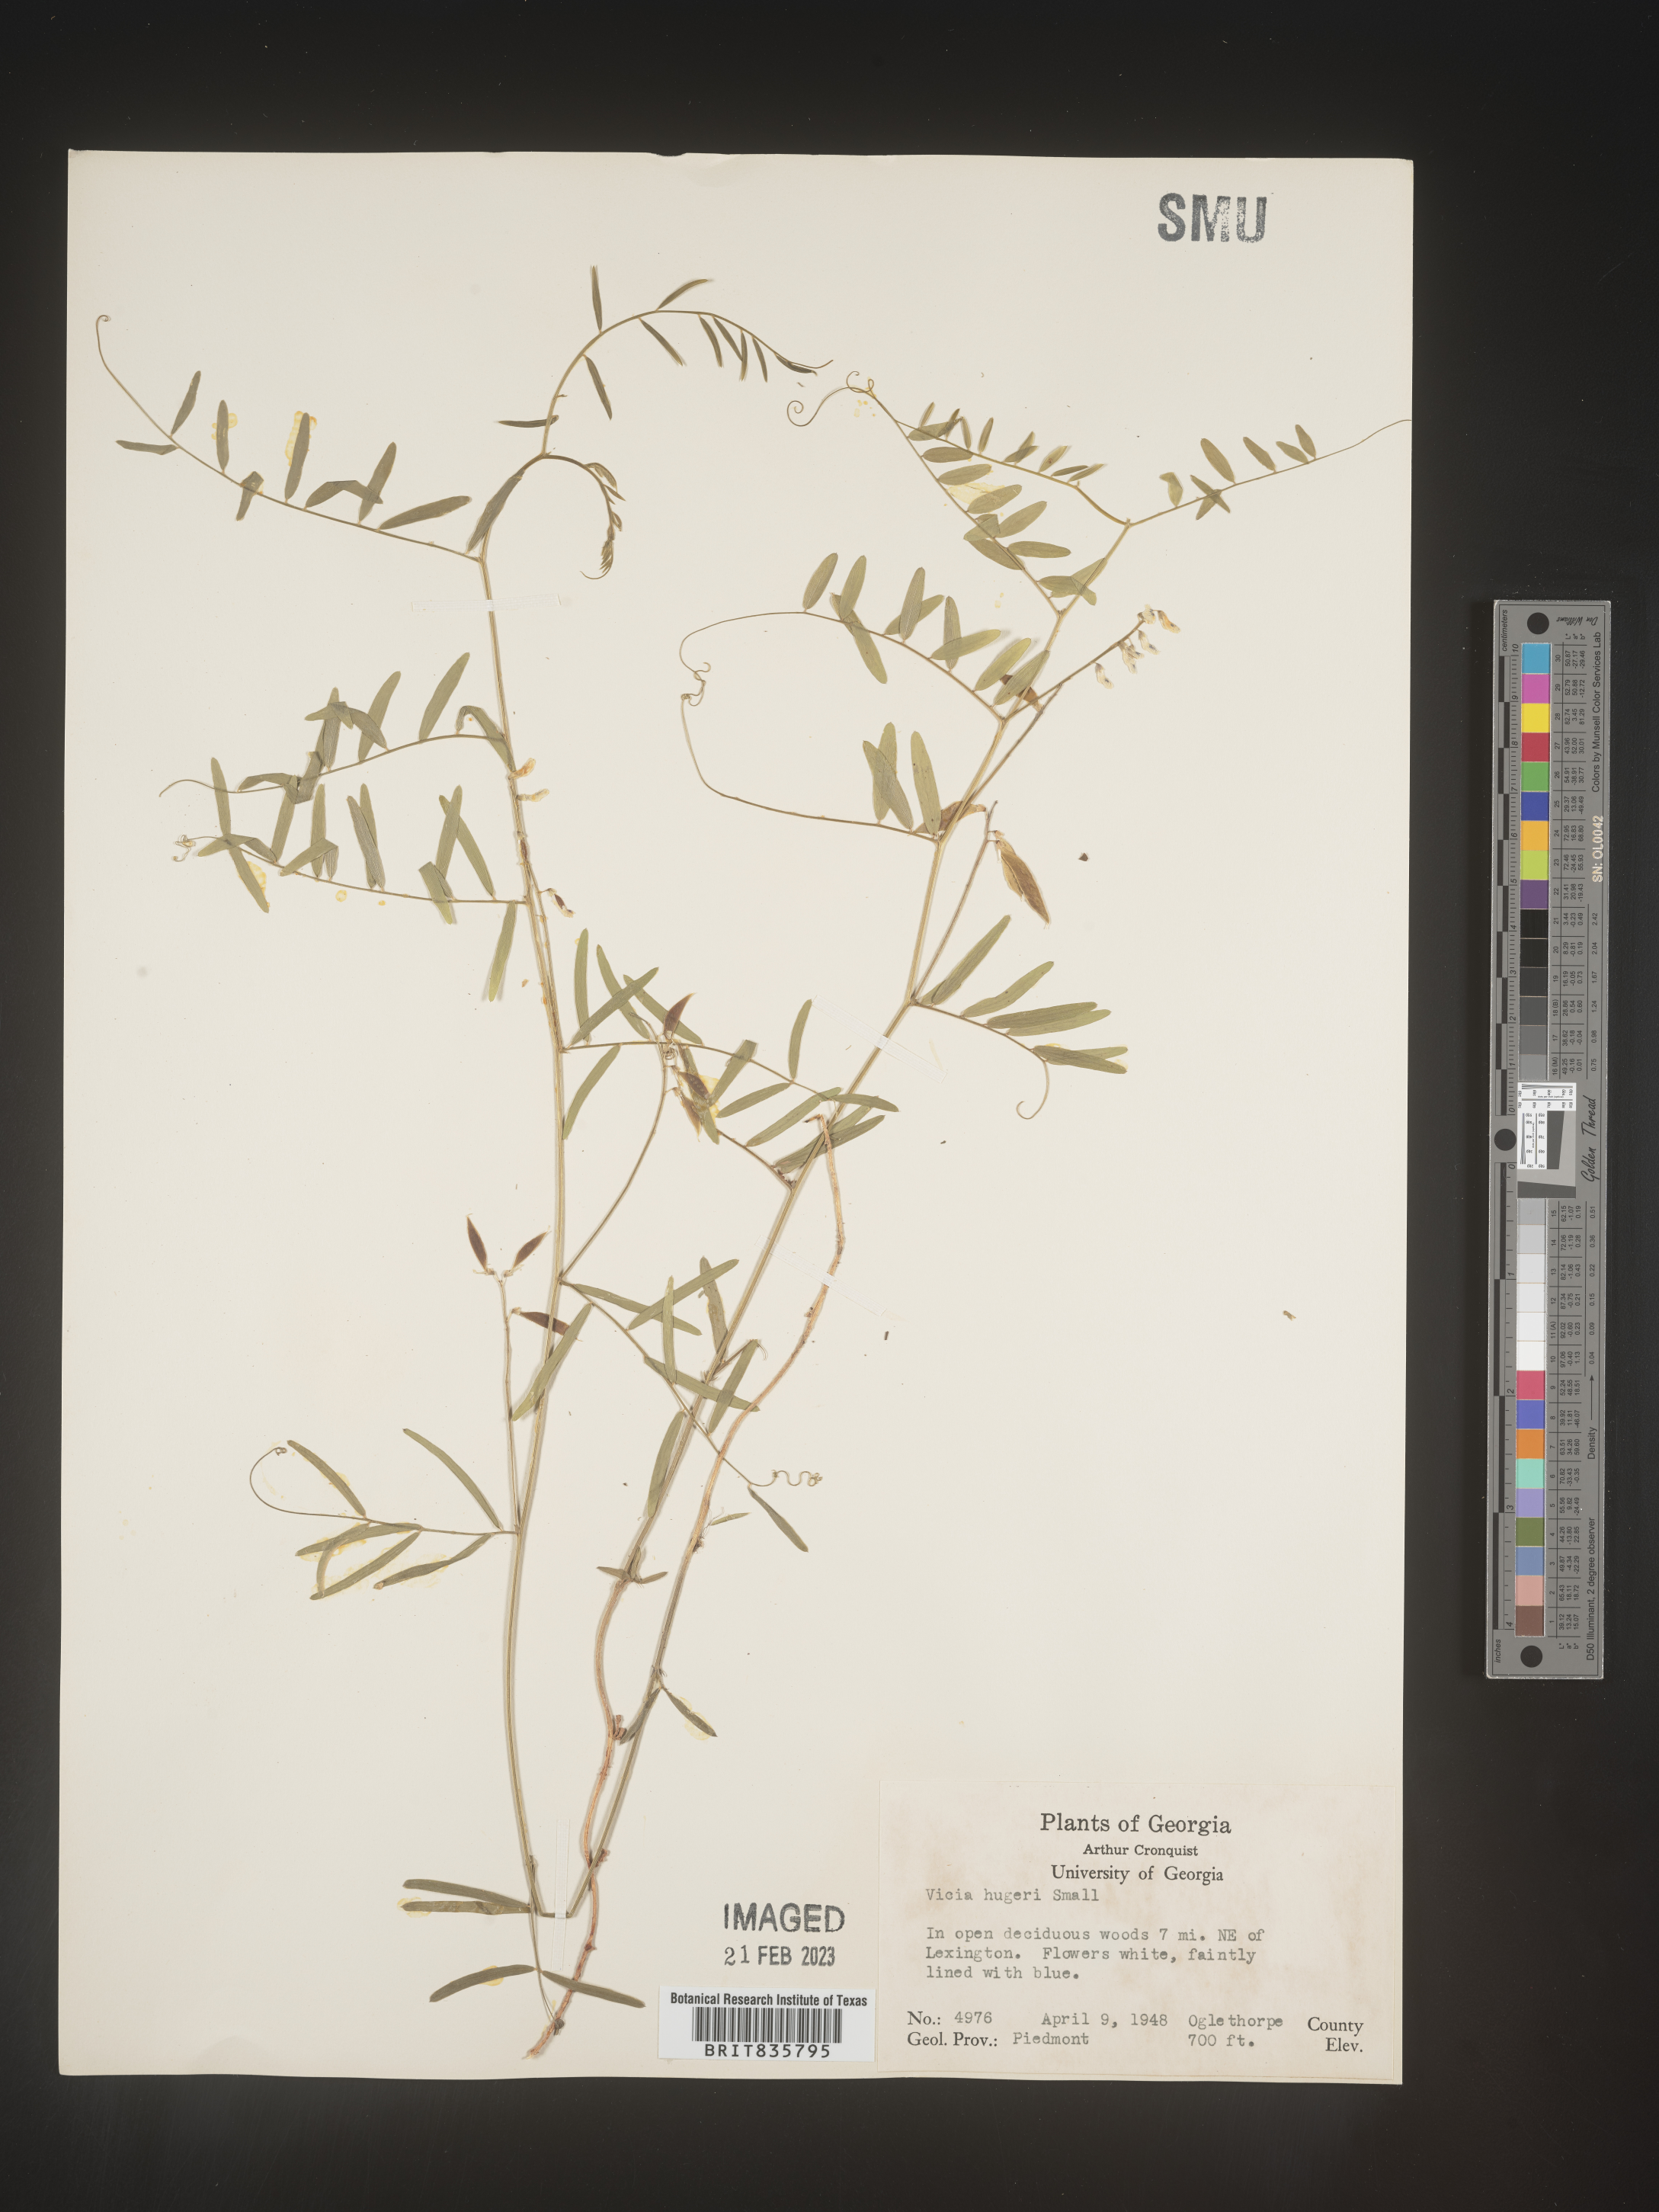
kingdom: Plantae
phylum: Tracheophyta
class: Magnoliopsida
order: Fabales
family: Fabaceae
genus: Vicia
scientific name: Vicia
